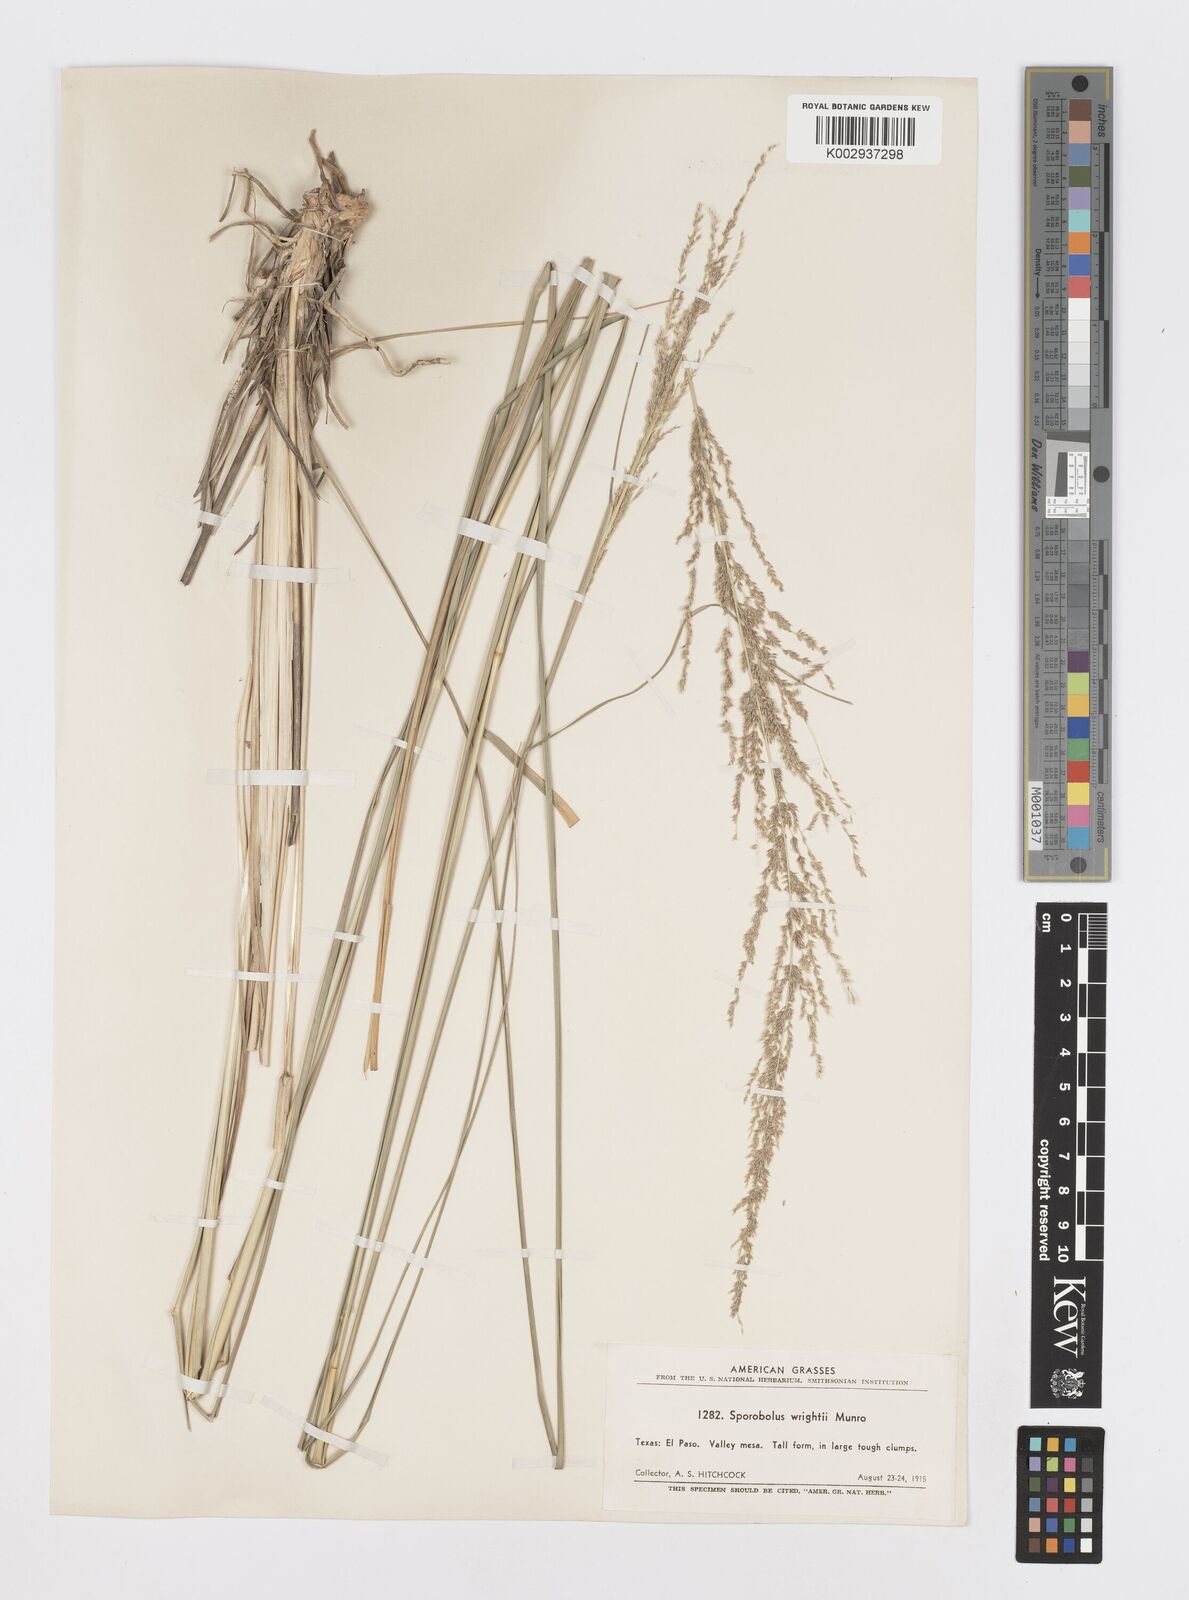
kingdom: Plantae
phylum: Tracheophyta
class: Liliopsida
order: Poales
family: Poaceae
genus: Sporobolus
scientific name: Sporobolus wrightii
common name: Big alkali sacaton
